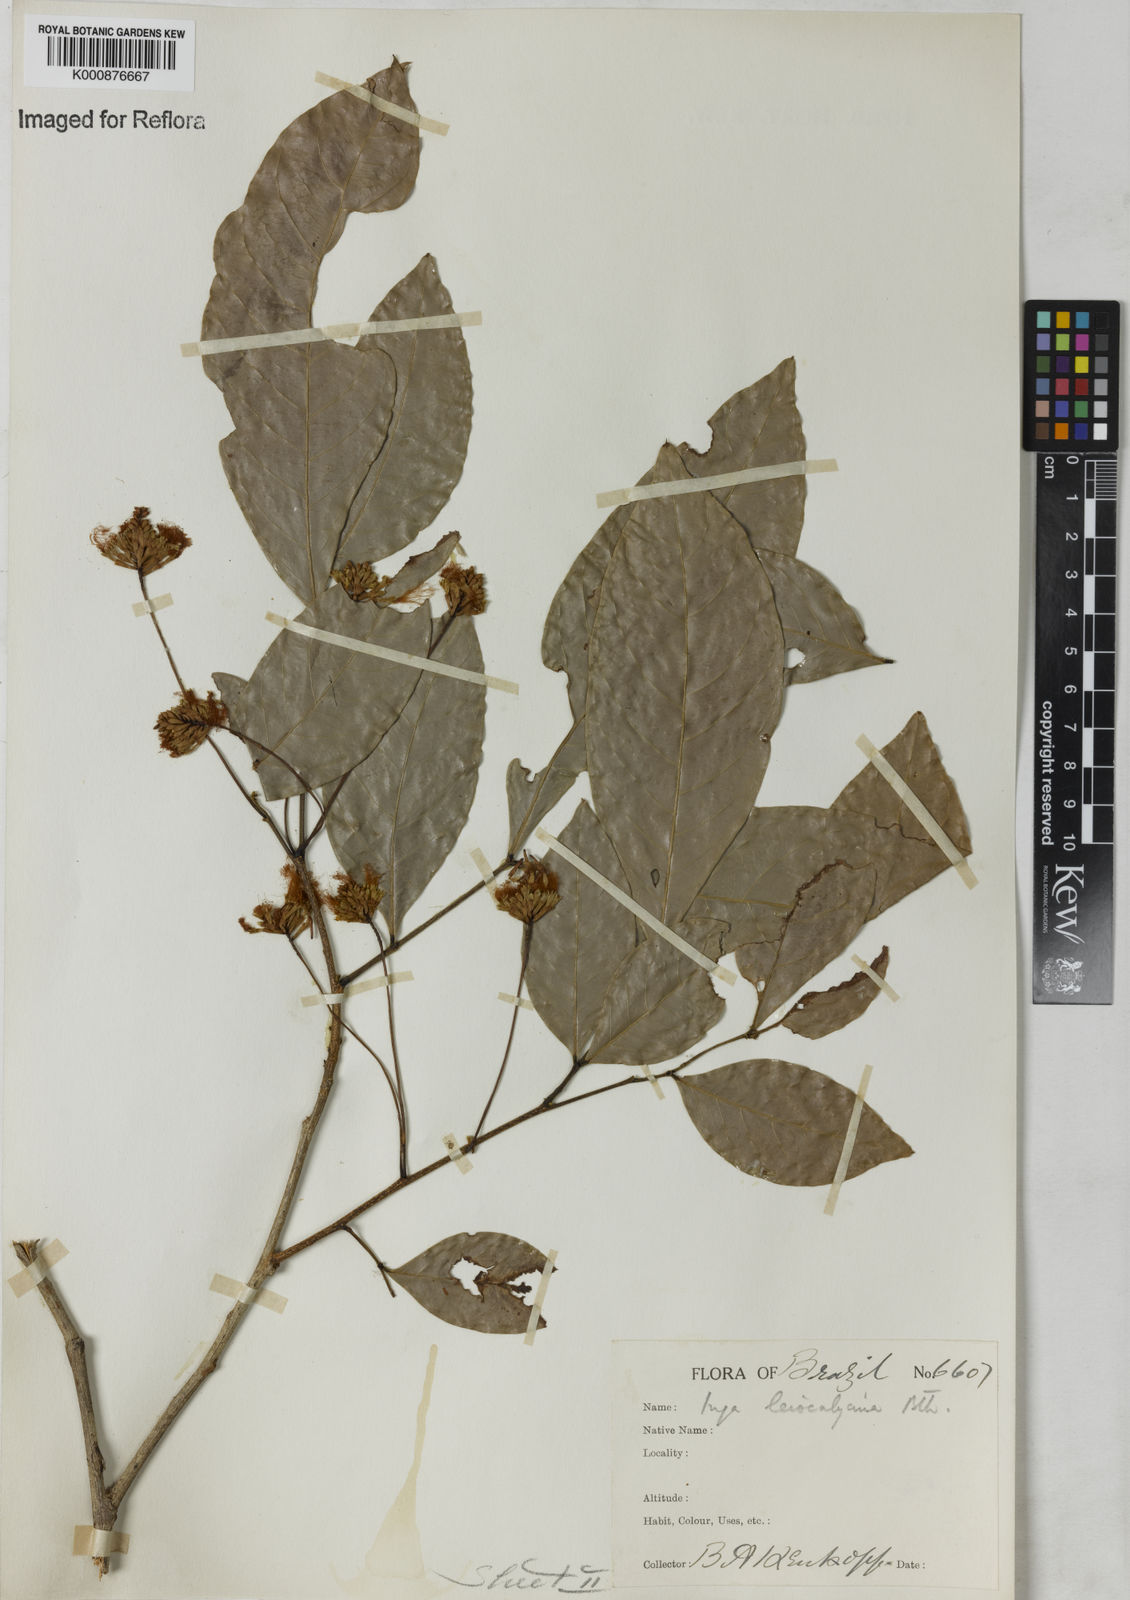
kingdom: Plantae
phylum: Tracheophyta
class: Magnoliopsida
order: Fabales
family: Fabaceae
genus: Inga
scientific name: Inga laevigata
